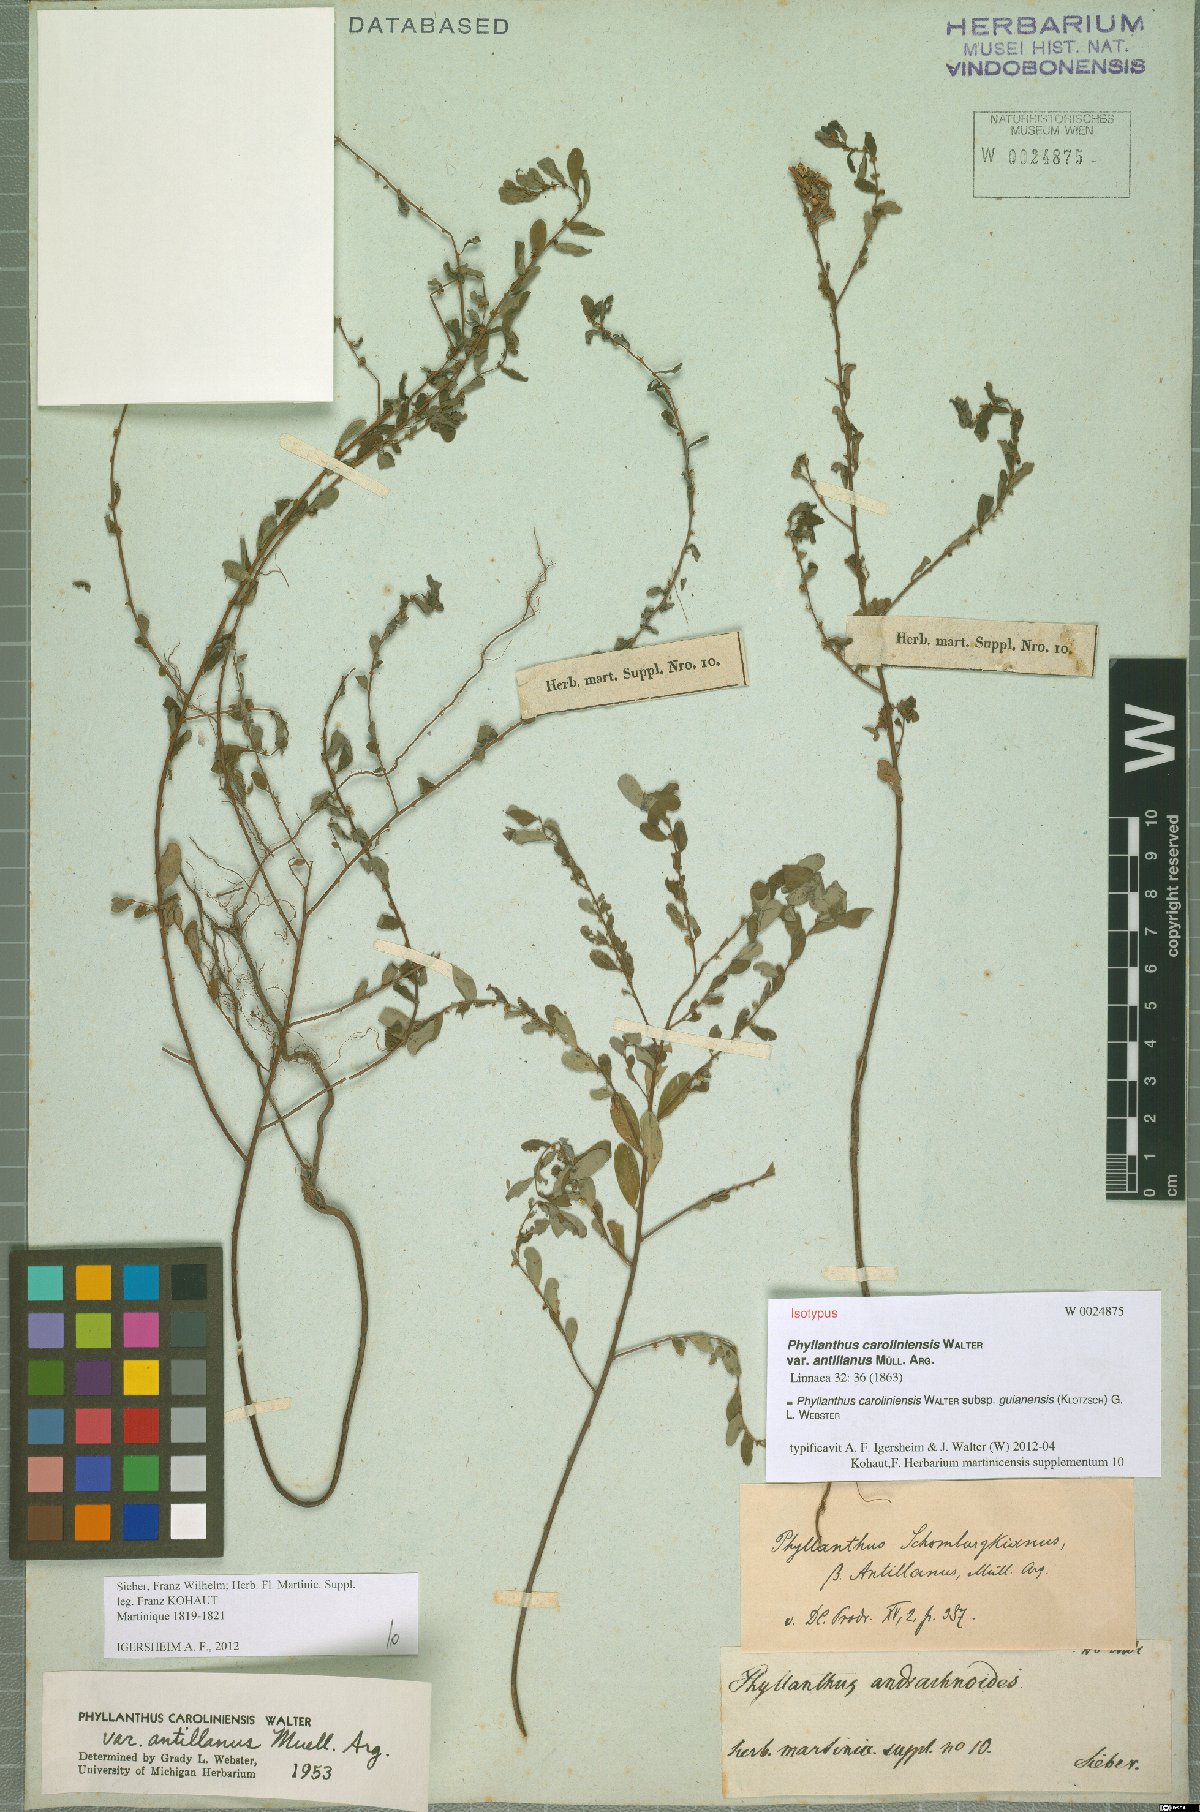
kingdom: Plantae
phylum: Tracheophyta
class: Magnoliopsida
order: Malpighiales
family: Phyllanthaceae
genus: Phyllanthus
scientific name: Phyllanthus caroliniensis
